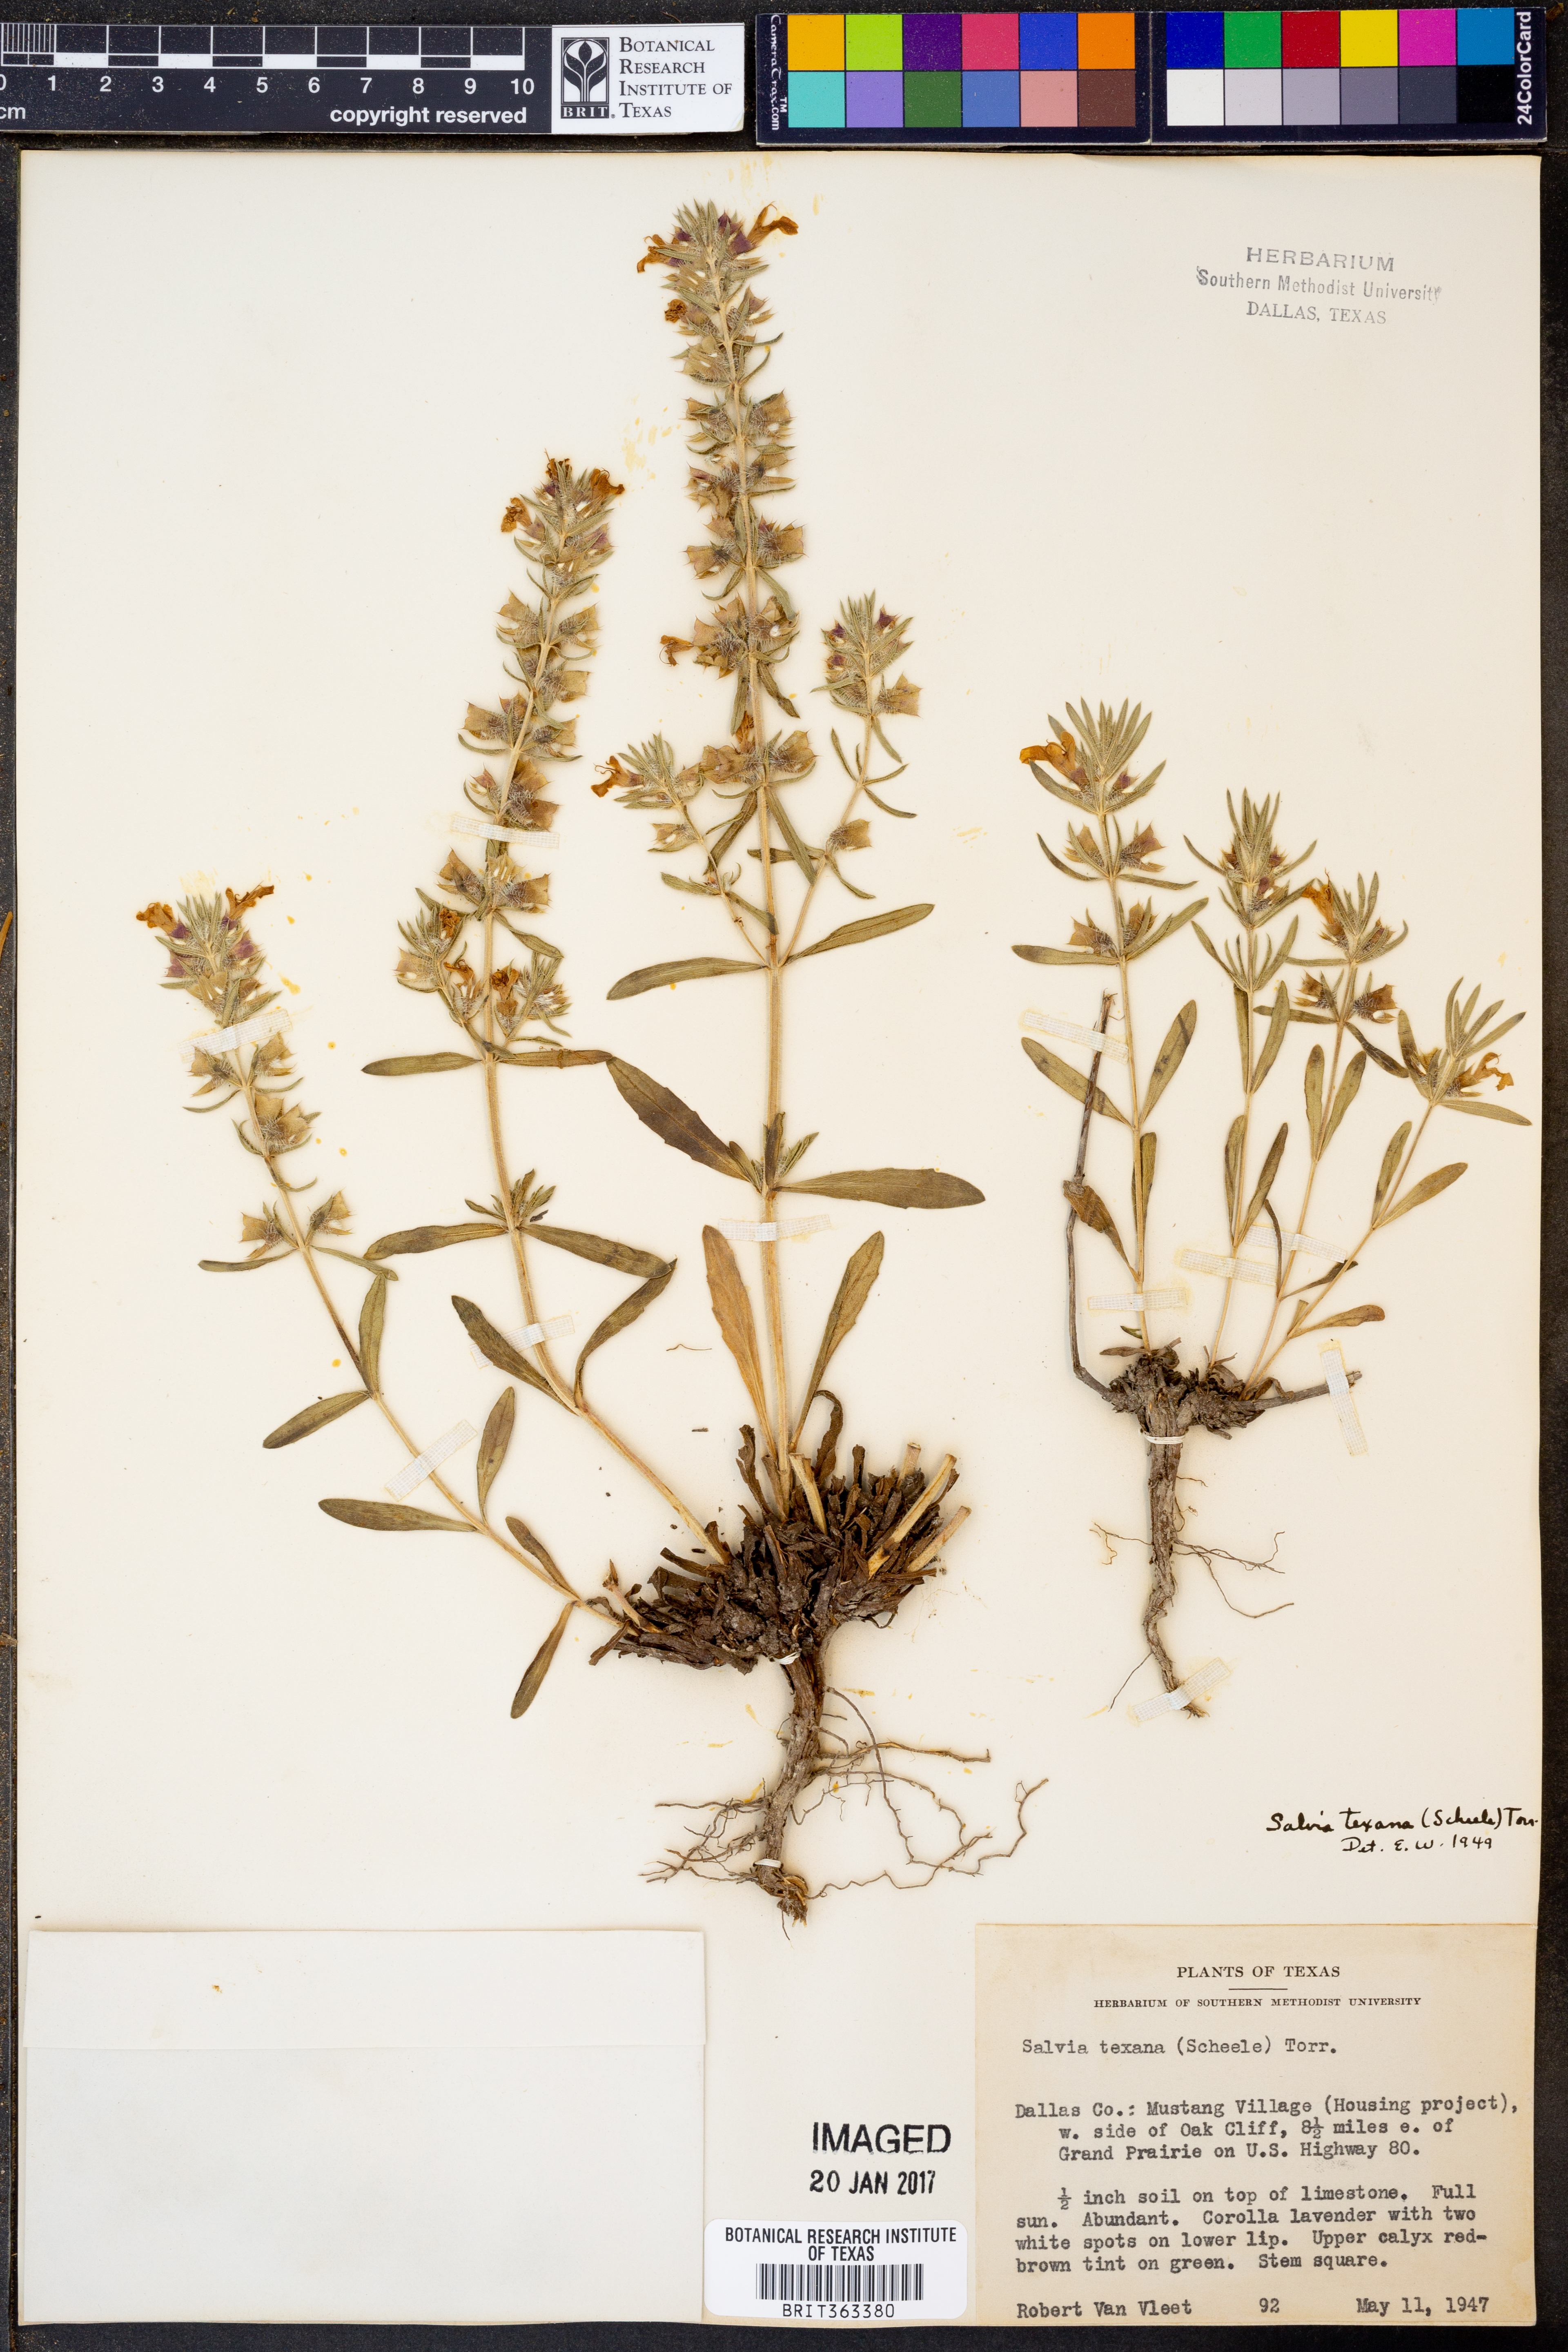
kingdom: Plantae
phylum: Tracheophyta
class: Magnoliopsida
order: Lamiales
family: Lamiaceae
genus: Salvia
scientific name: Salvia texana
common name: Texas sage
